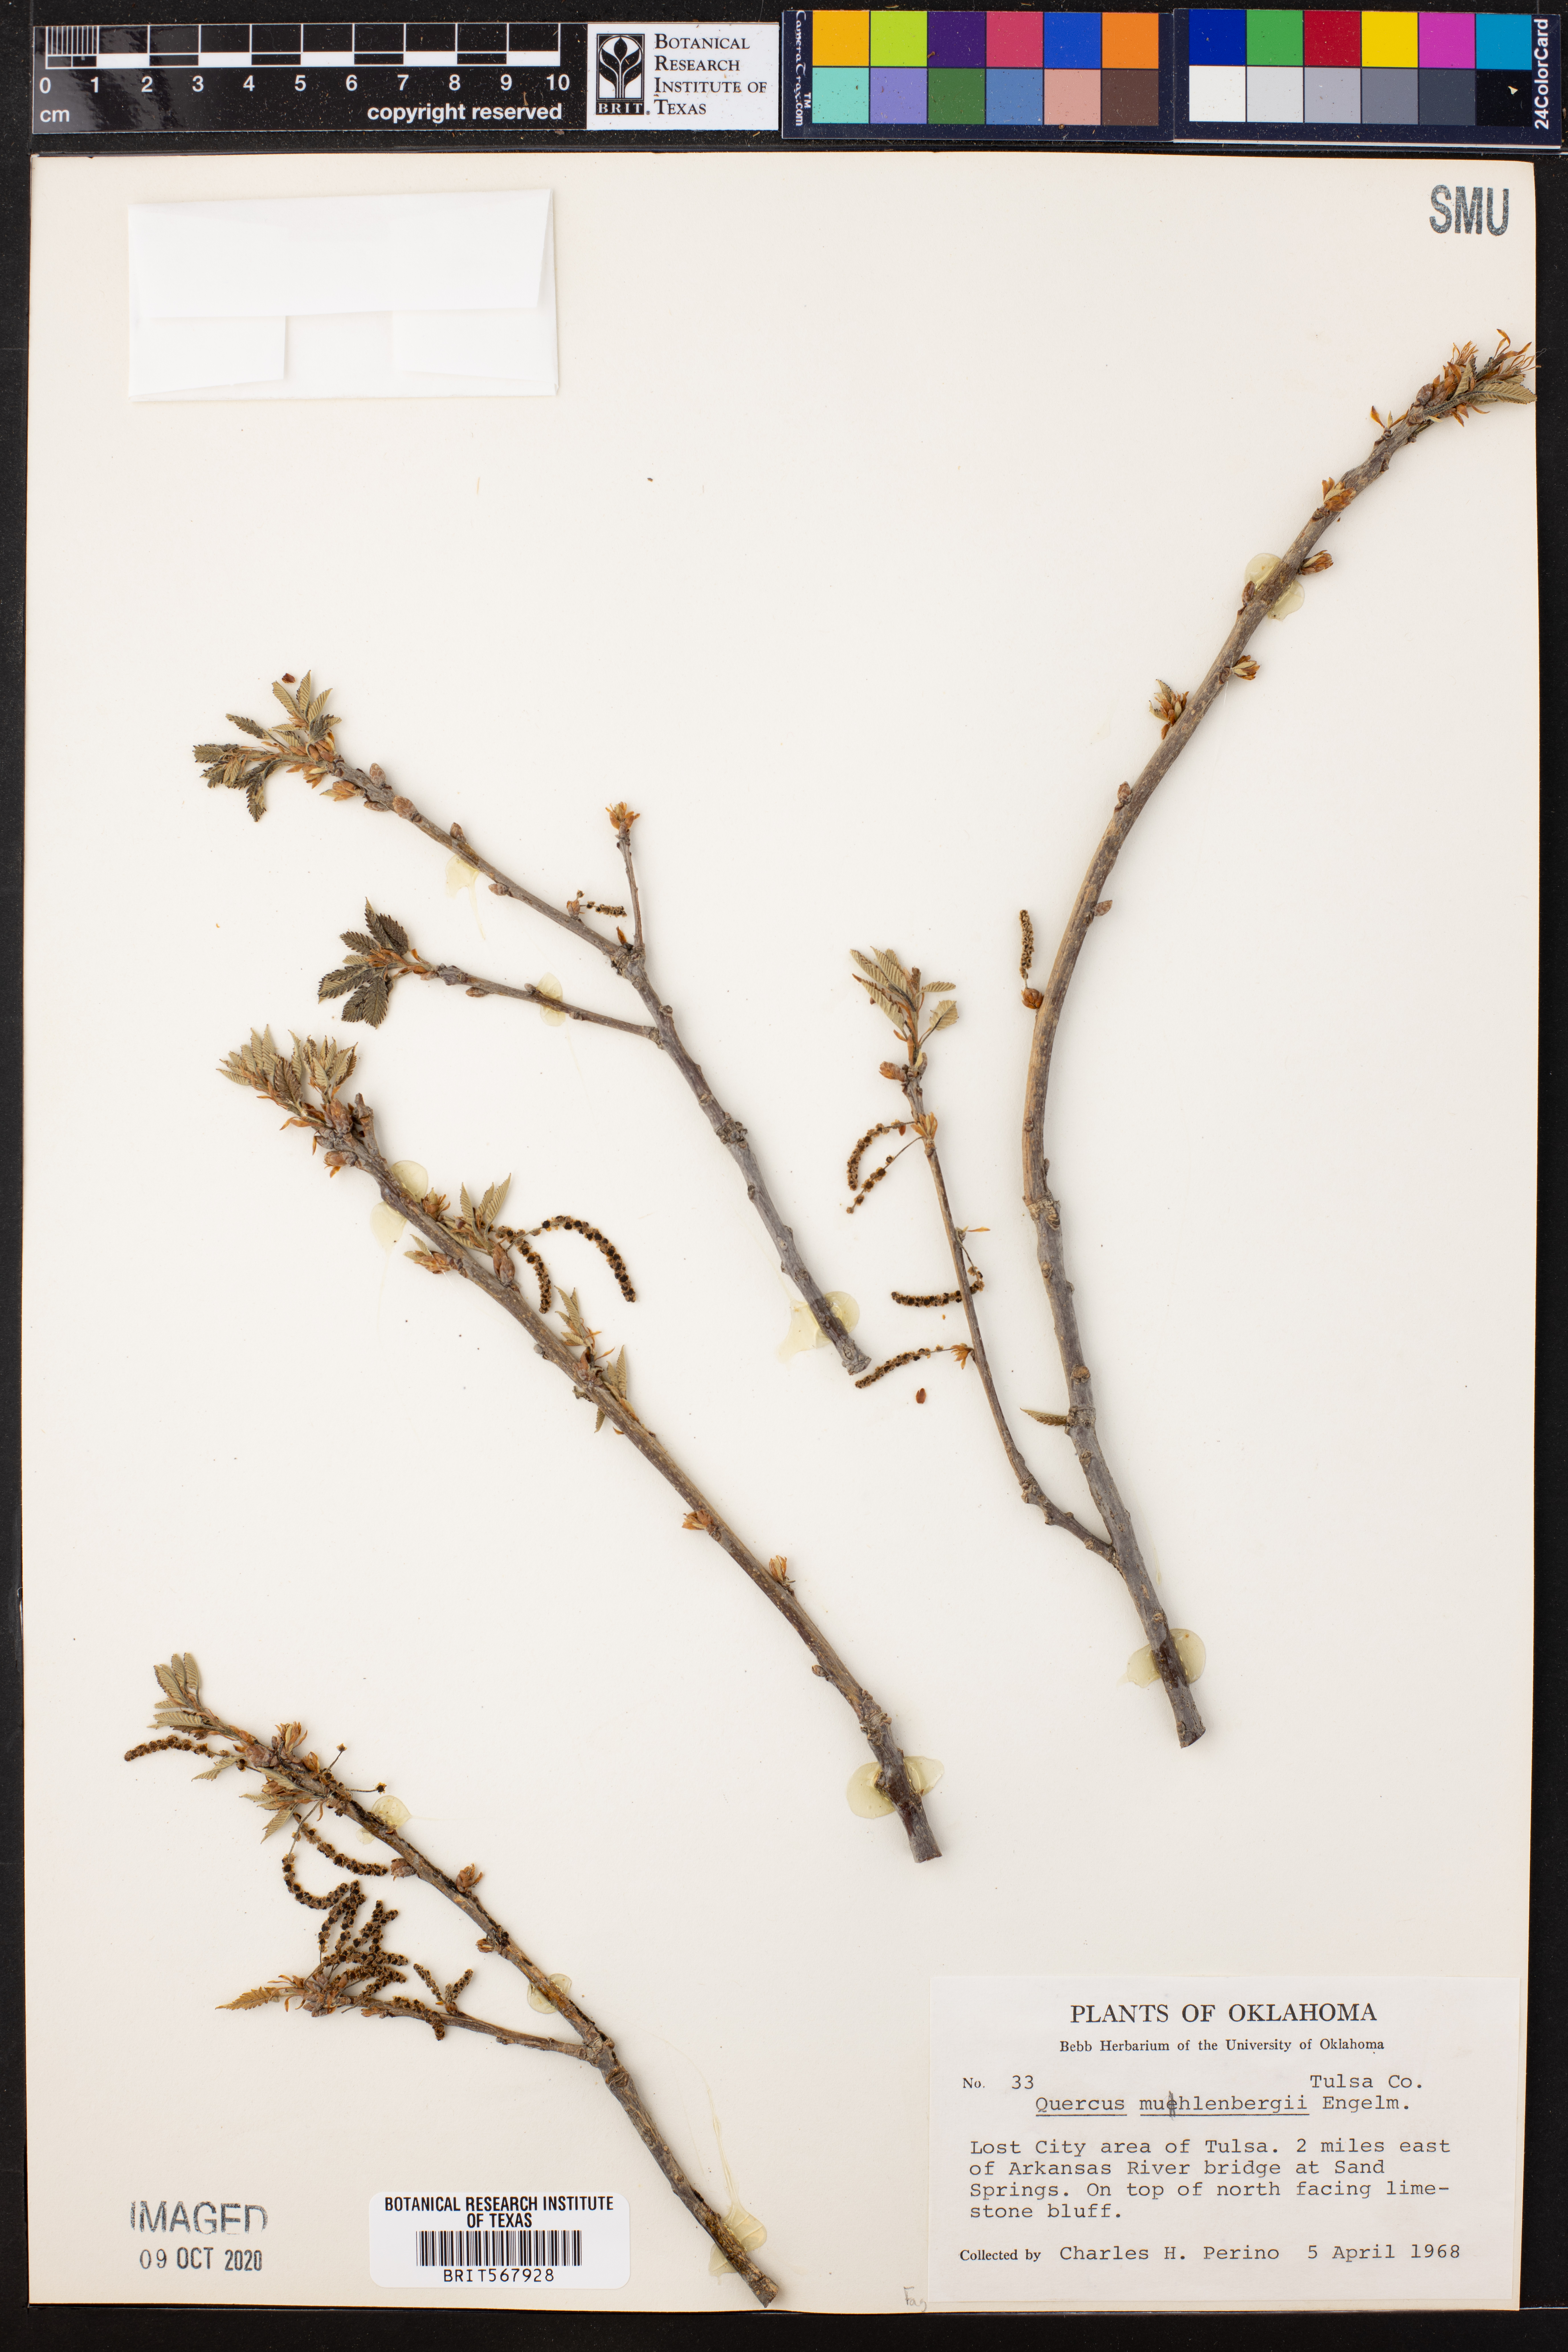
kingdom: Plantae
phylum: Tracheophyta
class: Magnoliopsida
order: Fagales
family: Fagaceae
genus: Quercus
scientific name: Quercus muehlenbergii
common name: Chinkapin oak
